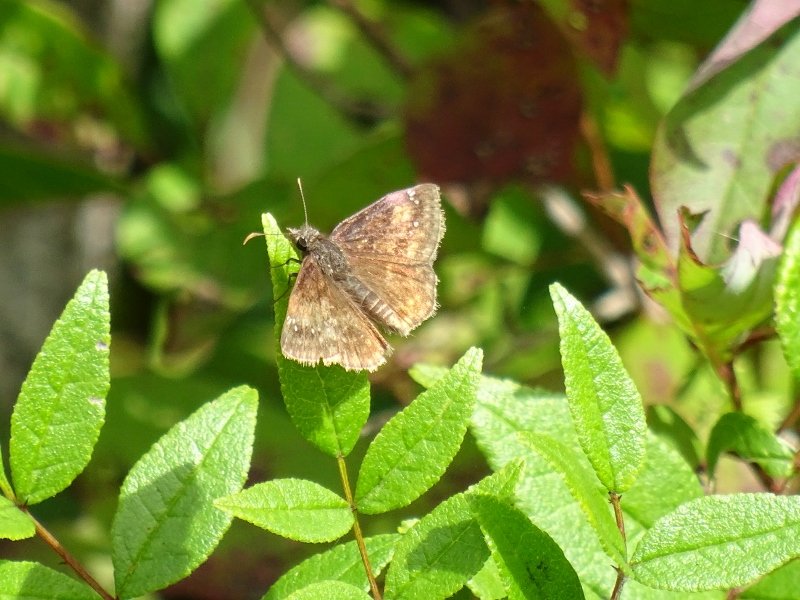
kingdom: Animalia
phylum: Arthropoda
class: Insecta
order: Lepidoptera
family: Hesperiidae
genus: Gesta
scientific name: Gesta
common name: Wild Indigo Duskywing
